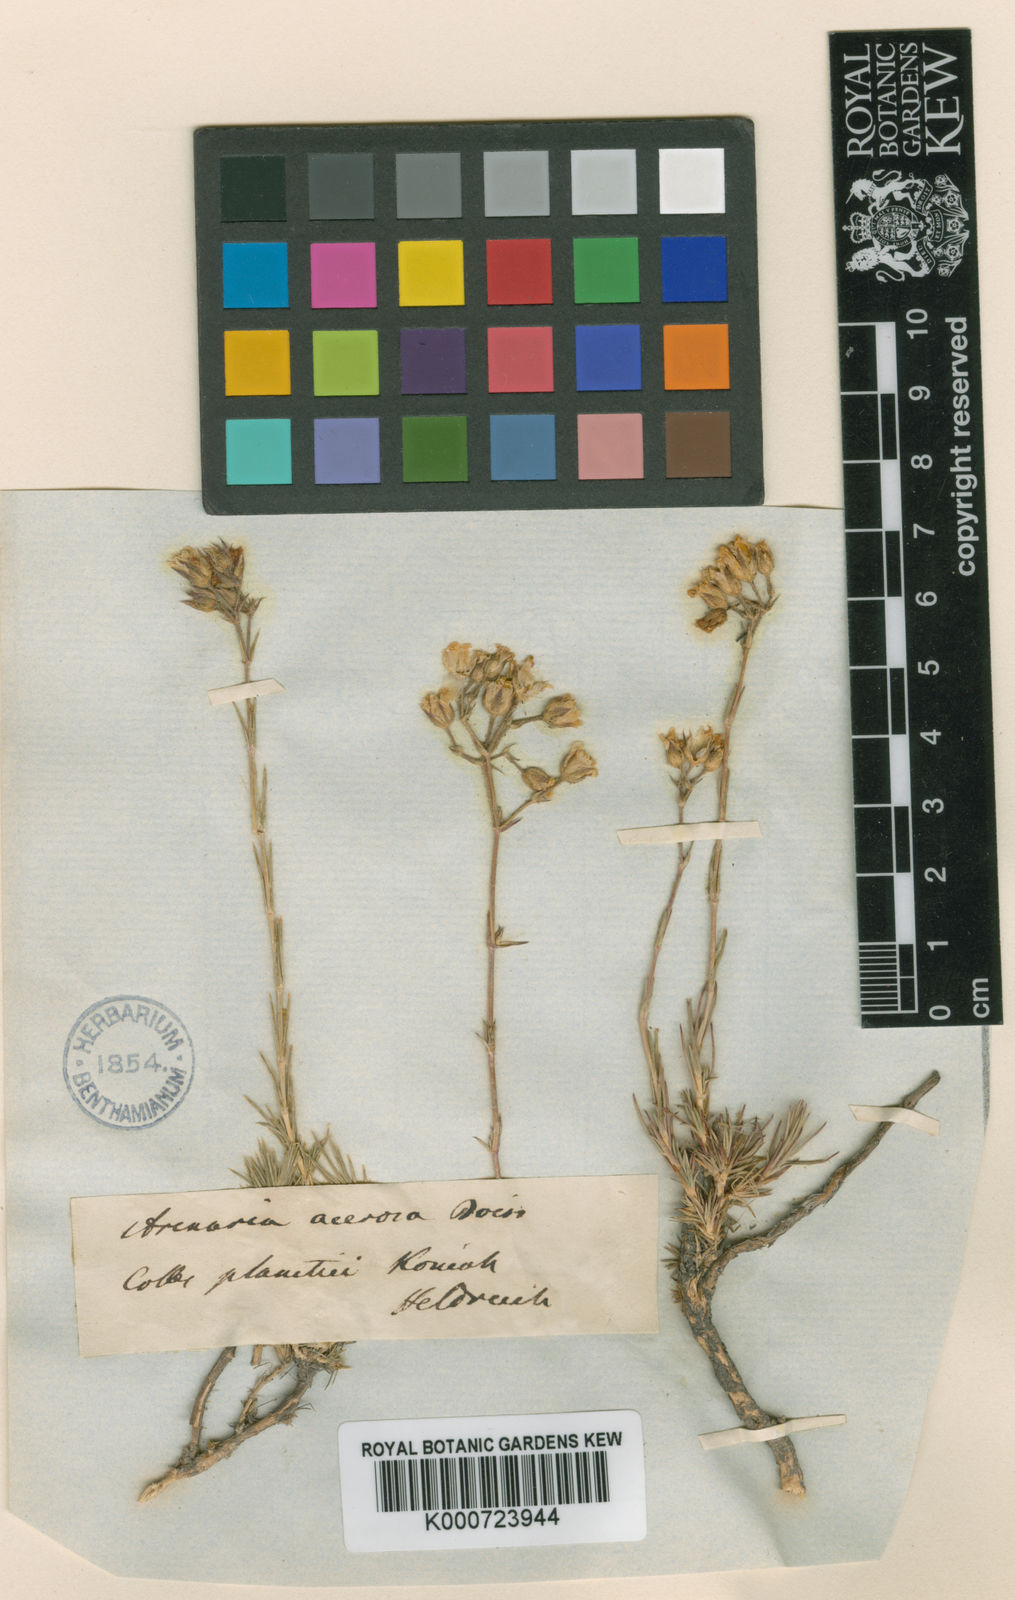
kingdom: Plantae
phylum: Tracheophyta
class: Magnoliopsida
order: Caryophyllales
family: Caryophyllaceae
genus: Eremogone
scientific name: Eremogone acerosa
